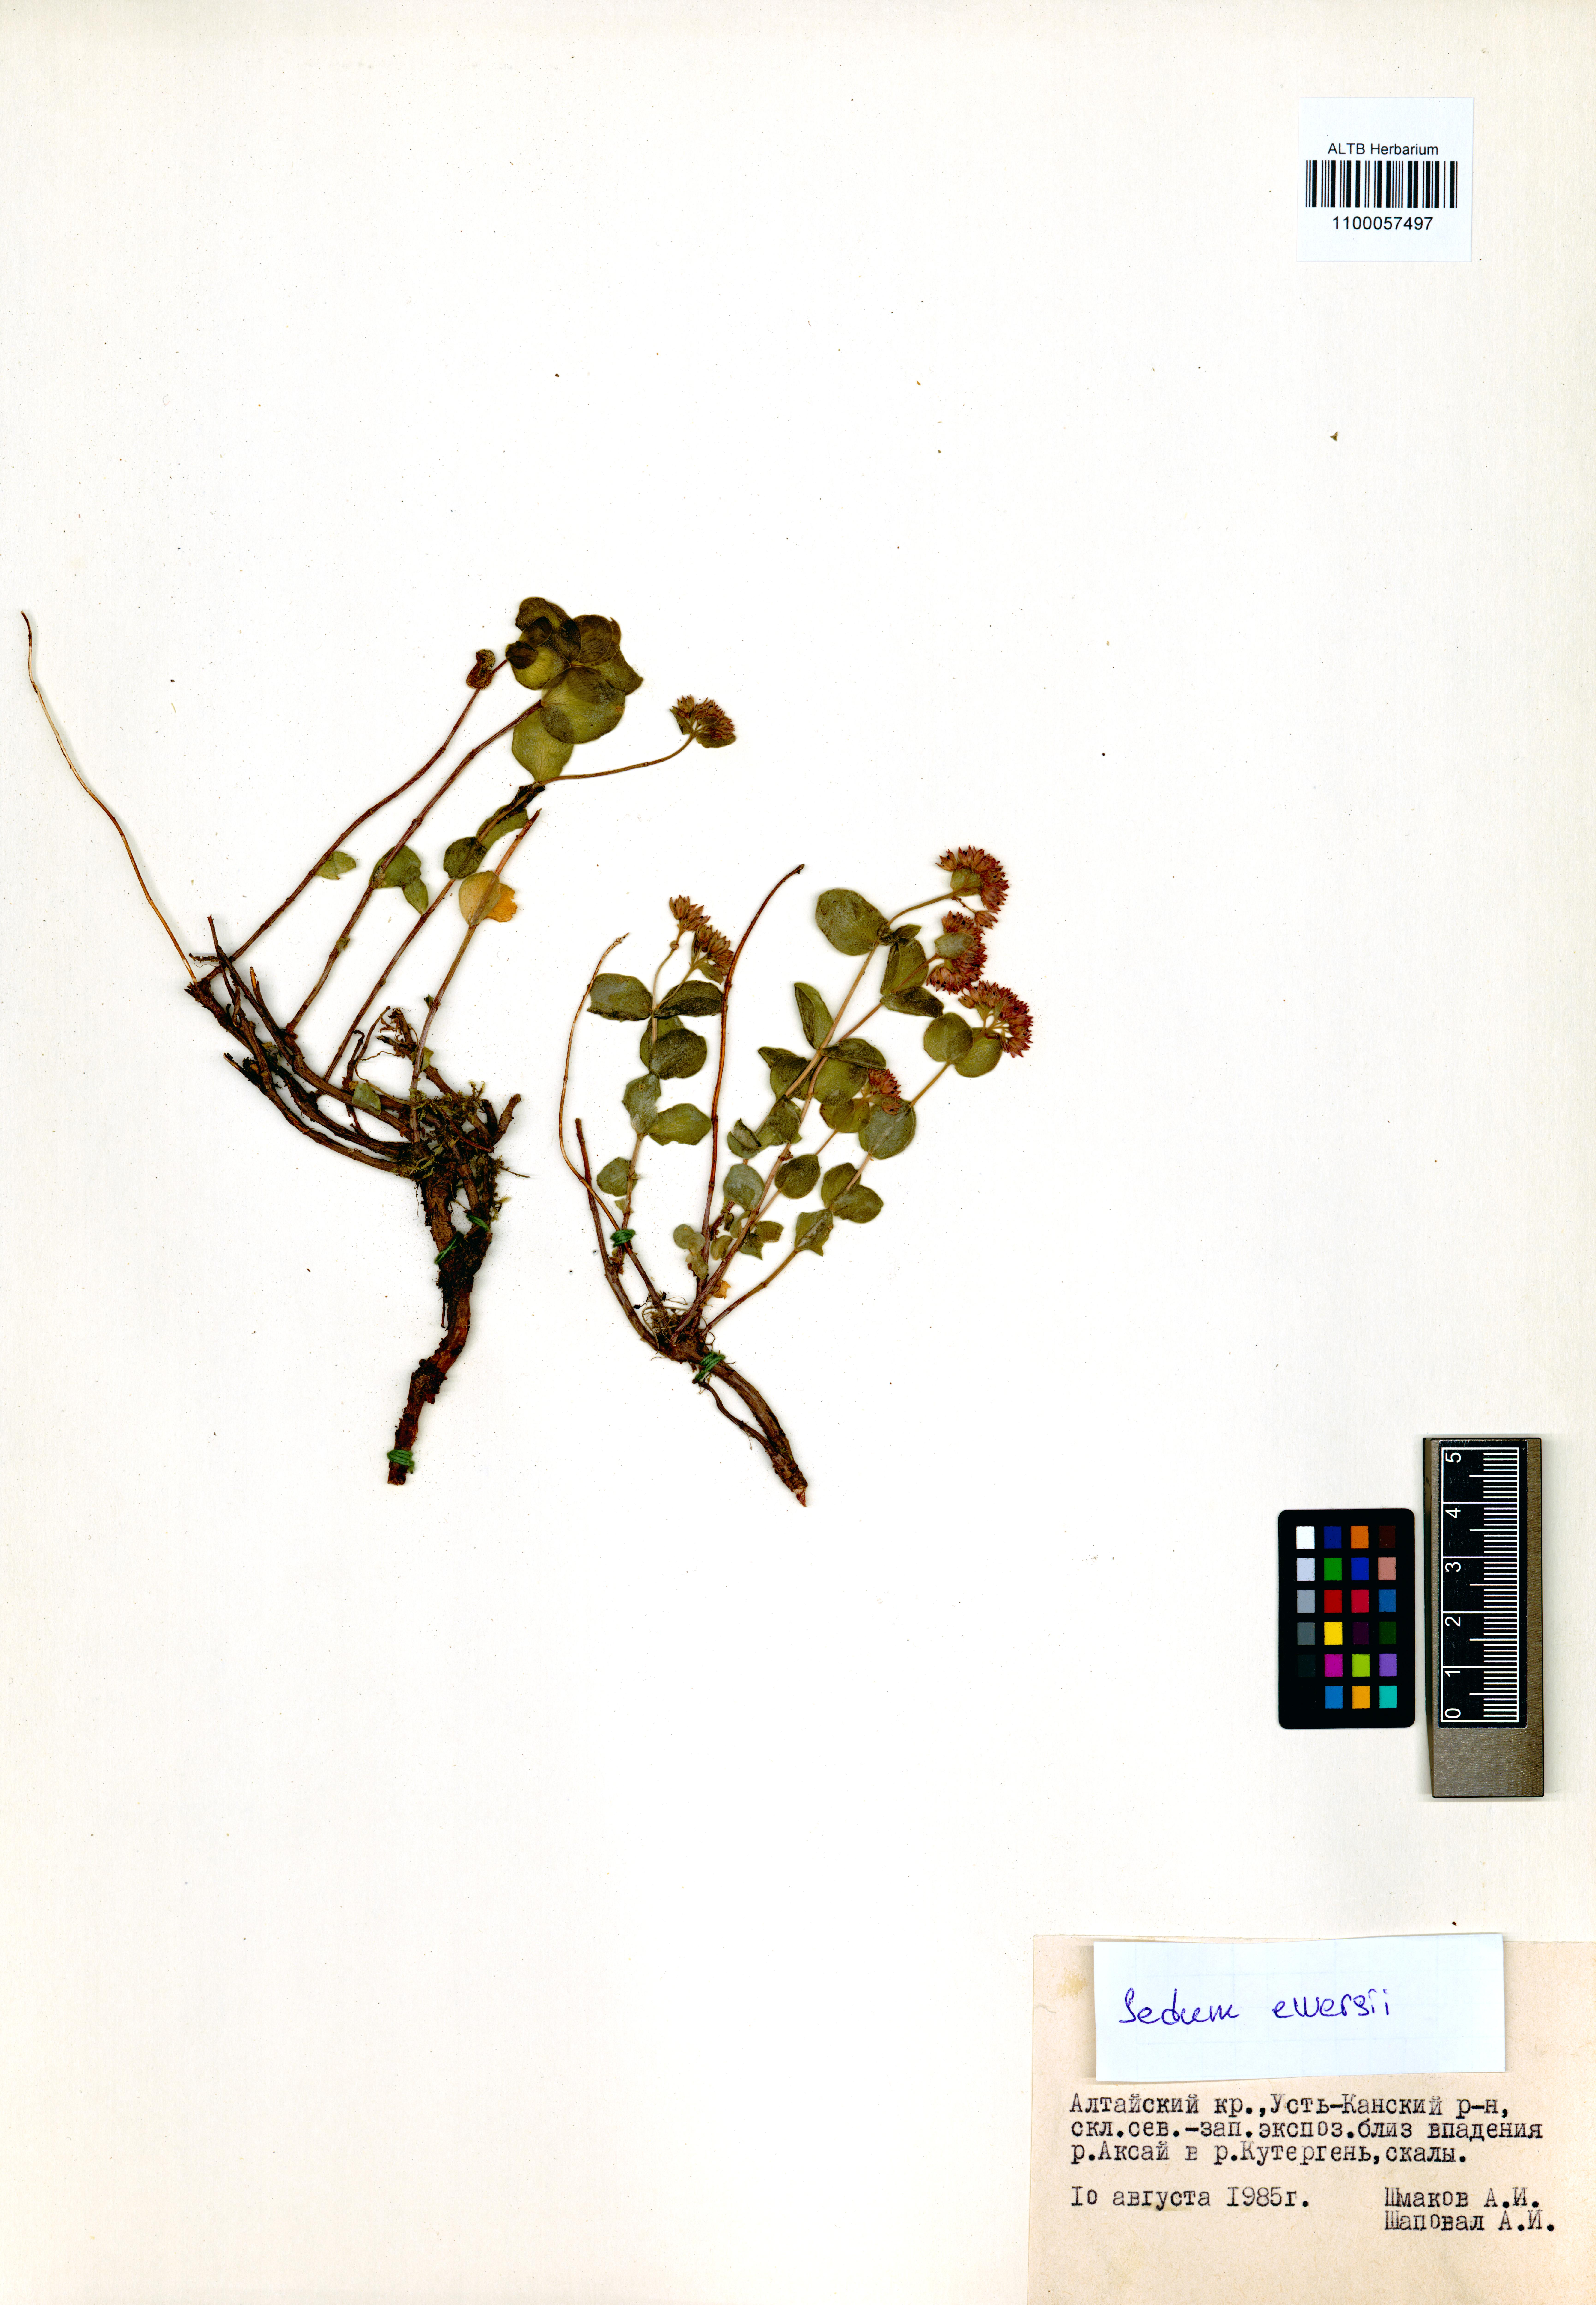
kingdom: Plantae
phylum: Tracheophyta
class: Magnoliopsida
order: Saxifragales
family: Crassulaceae
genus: Hylotelephium
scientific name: Hylotelephium ewersii
